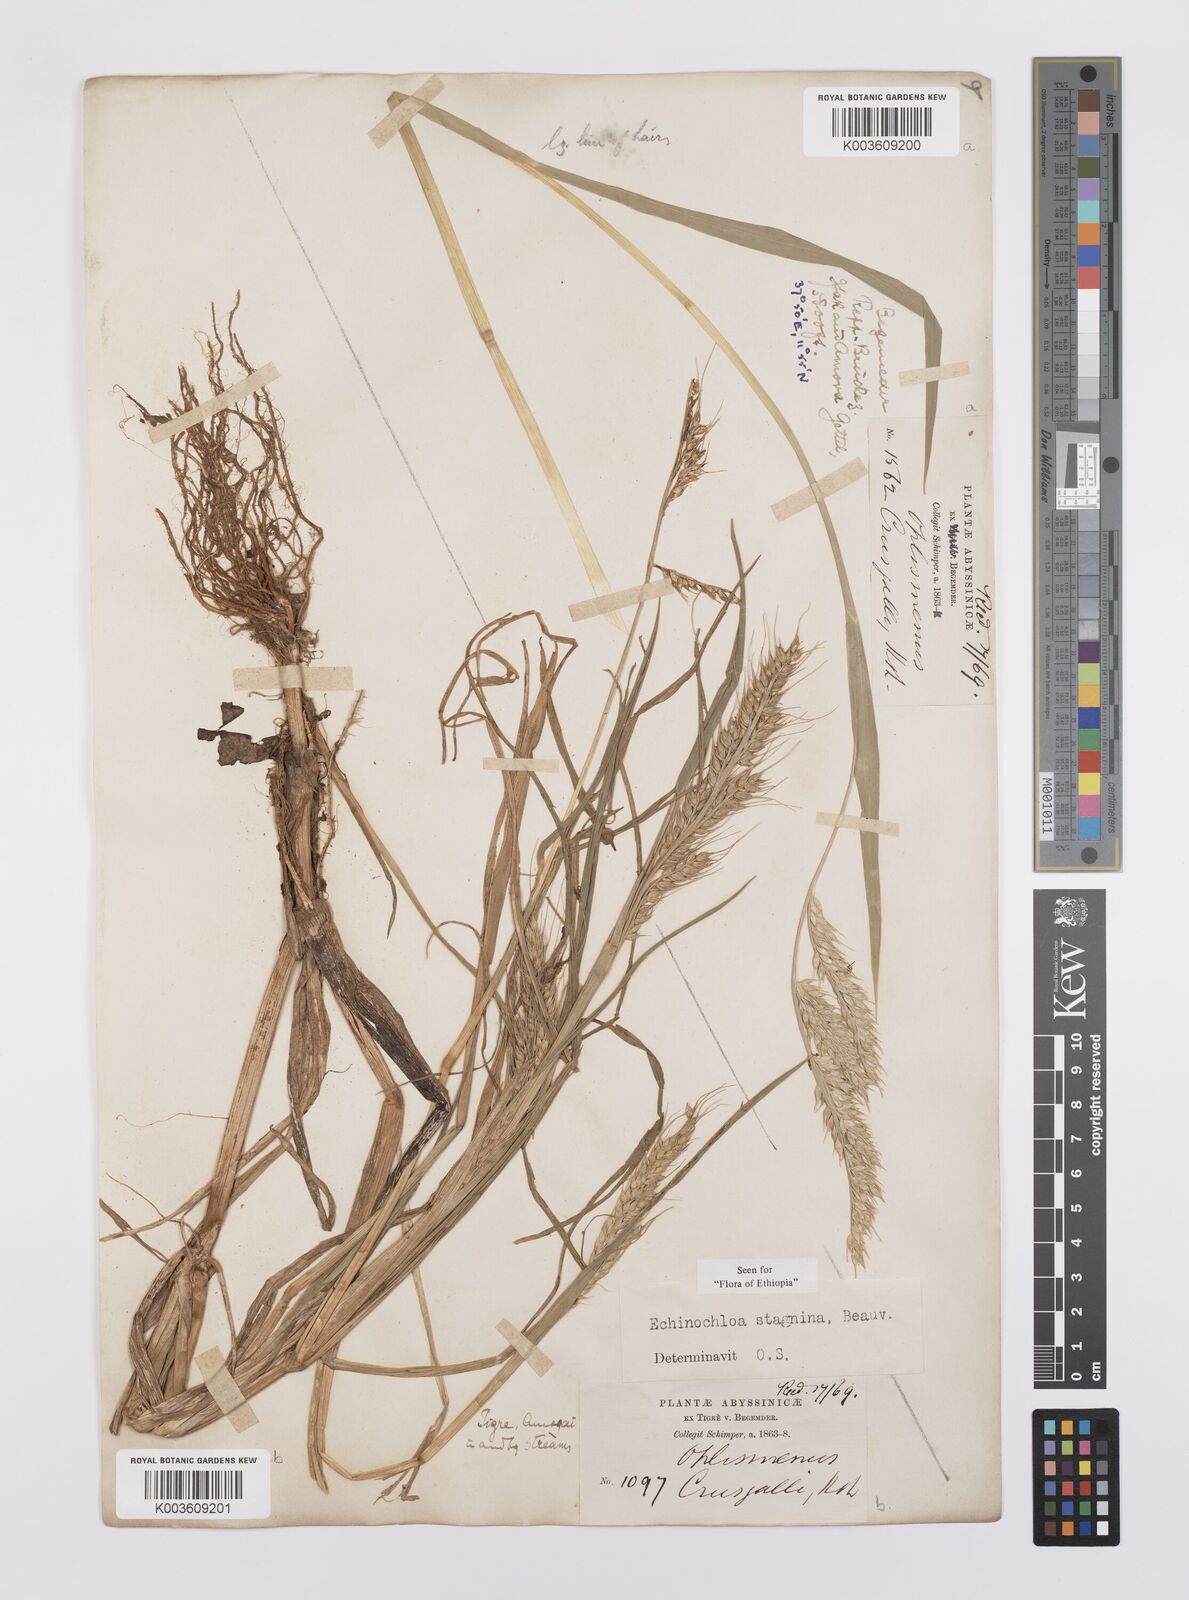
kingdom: Plantae
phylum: Tracheophyta
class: Liliopsida
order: Poales
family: Poaceae
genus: Echinochloa
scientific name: Echinochloa stagnina
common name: Burgu grass
